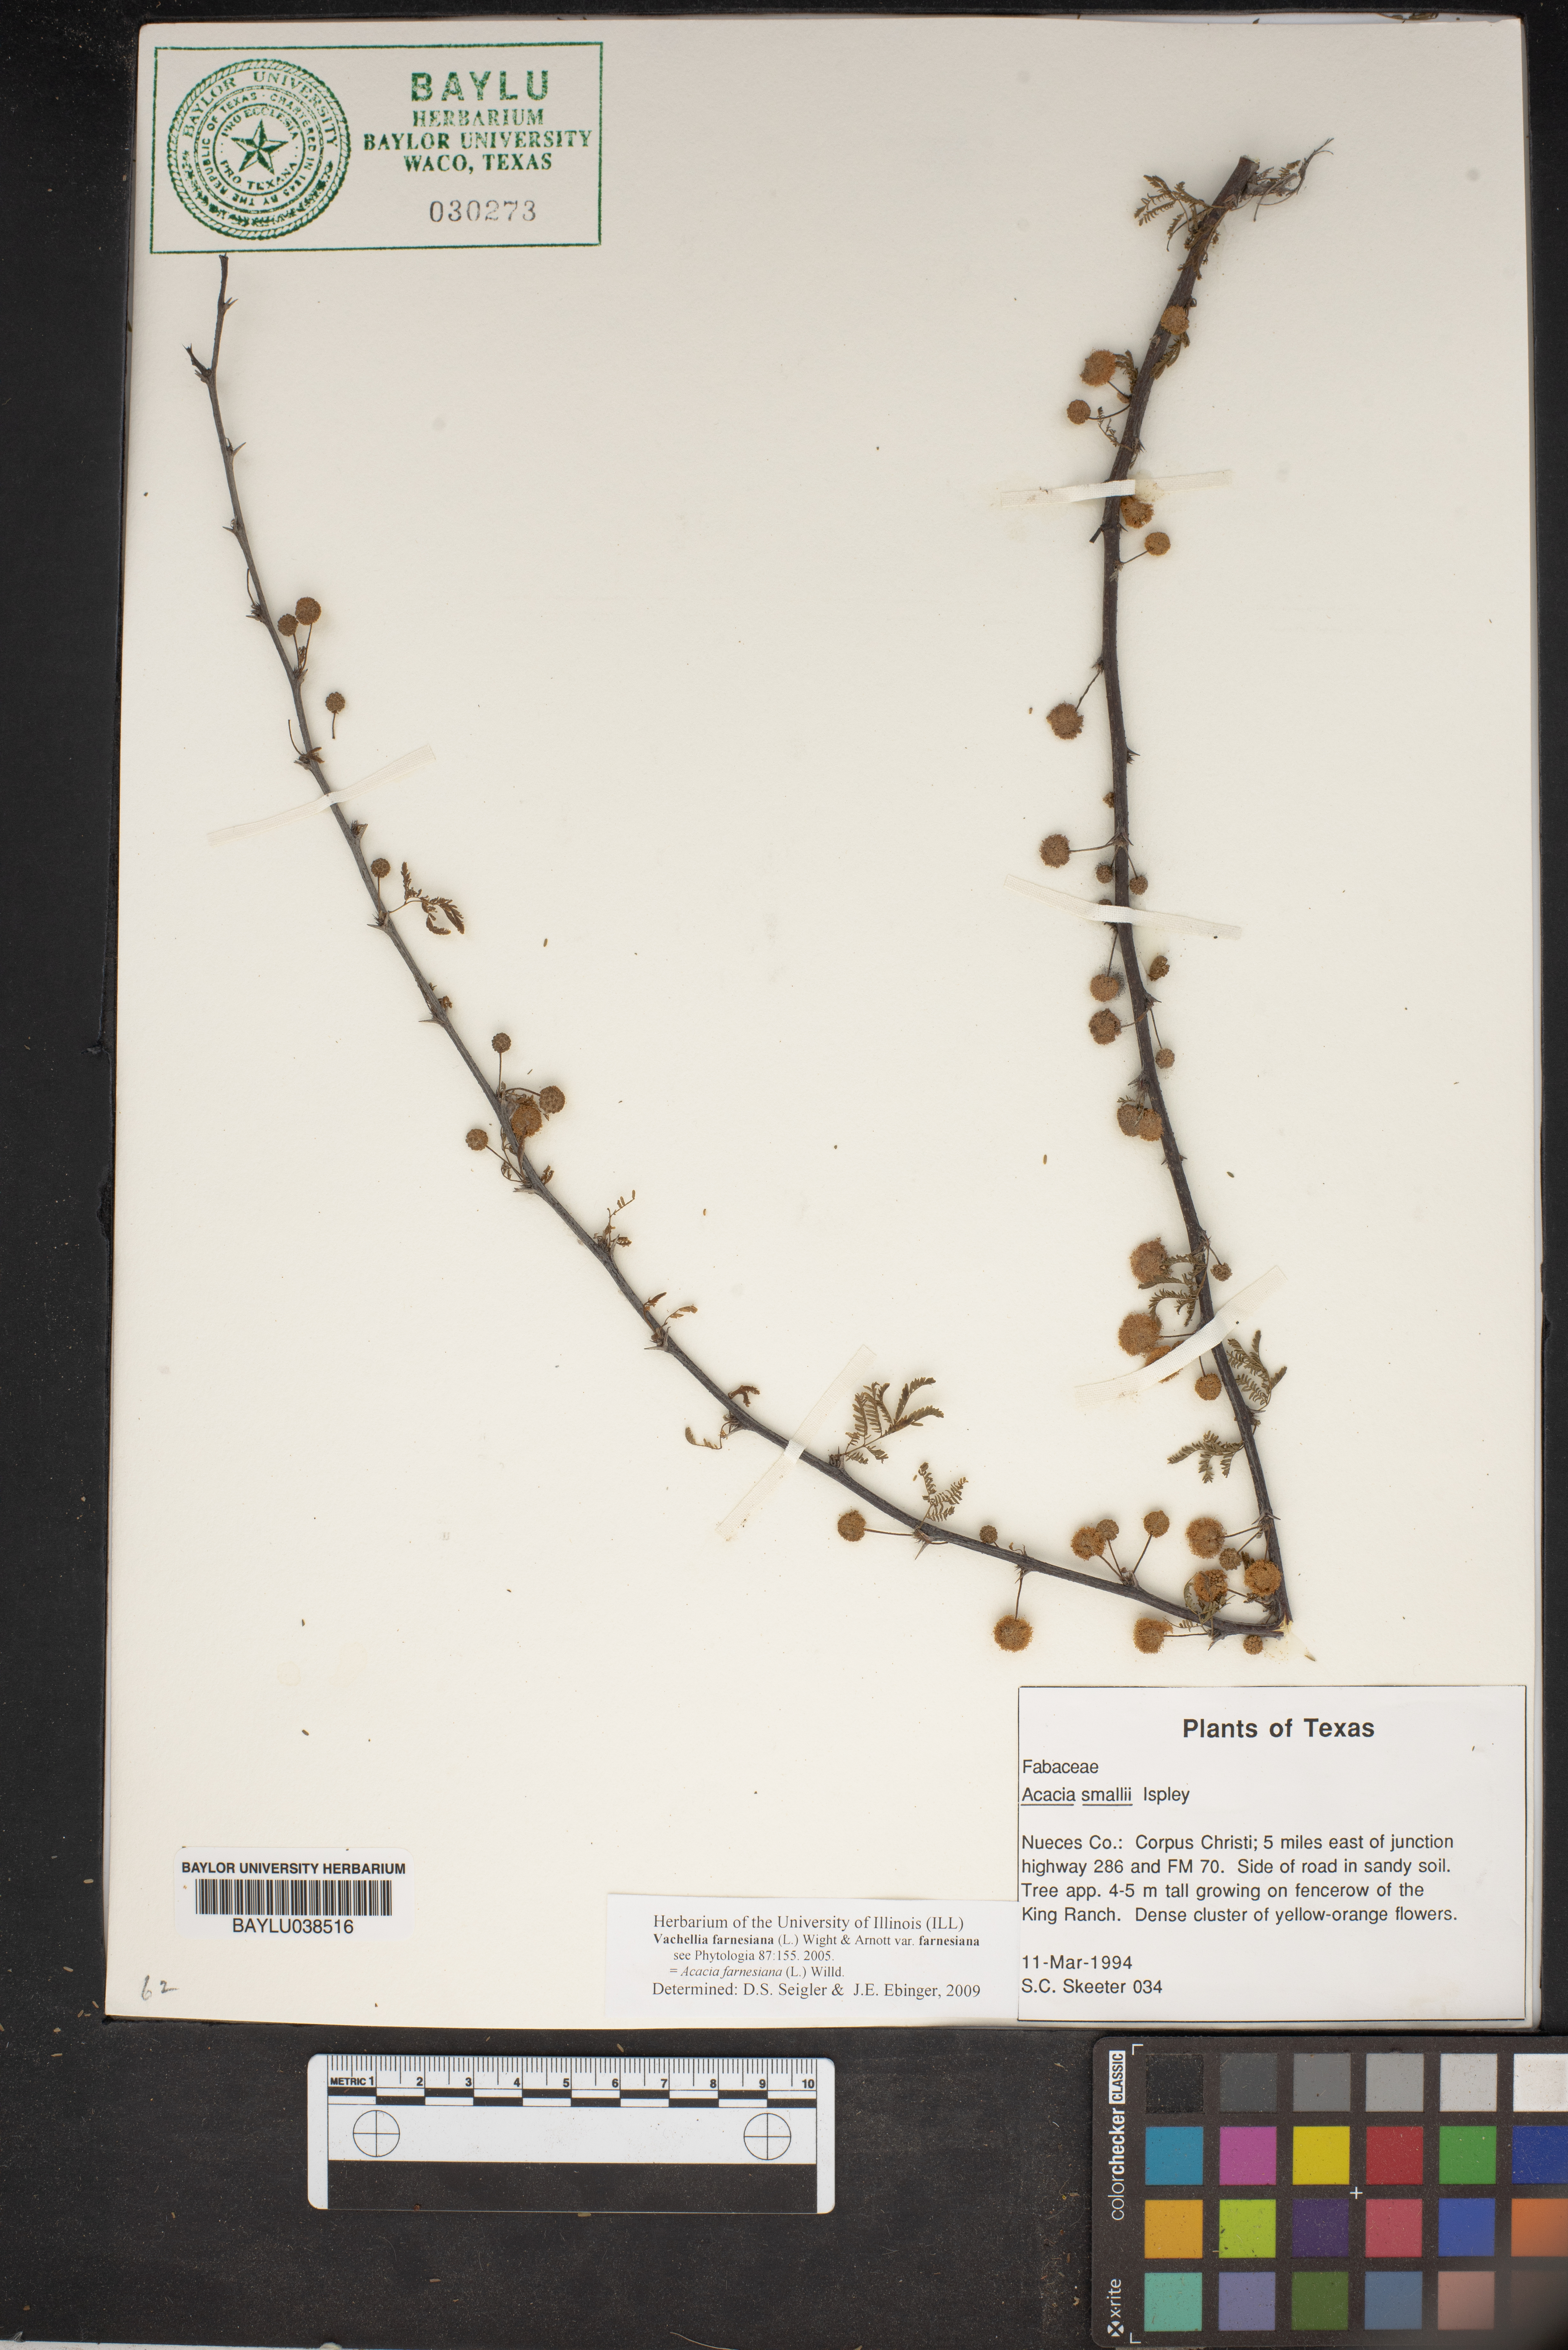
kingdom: Plantae
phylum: Tracheophyta
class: Magnoliopsida
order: Fabales
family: Fabaceae
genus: Vachellia
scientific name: Vachellia farnesiana
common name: Sweet acacia
